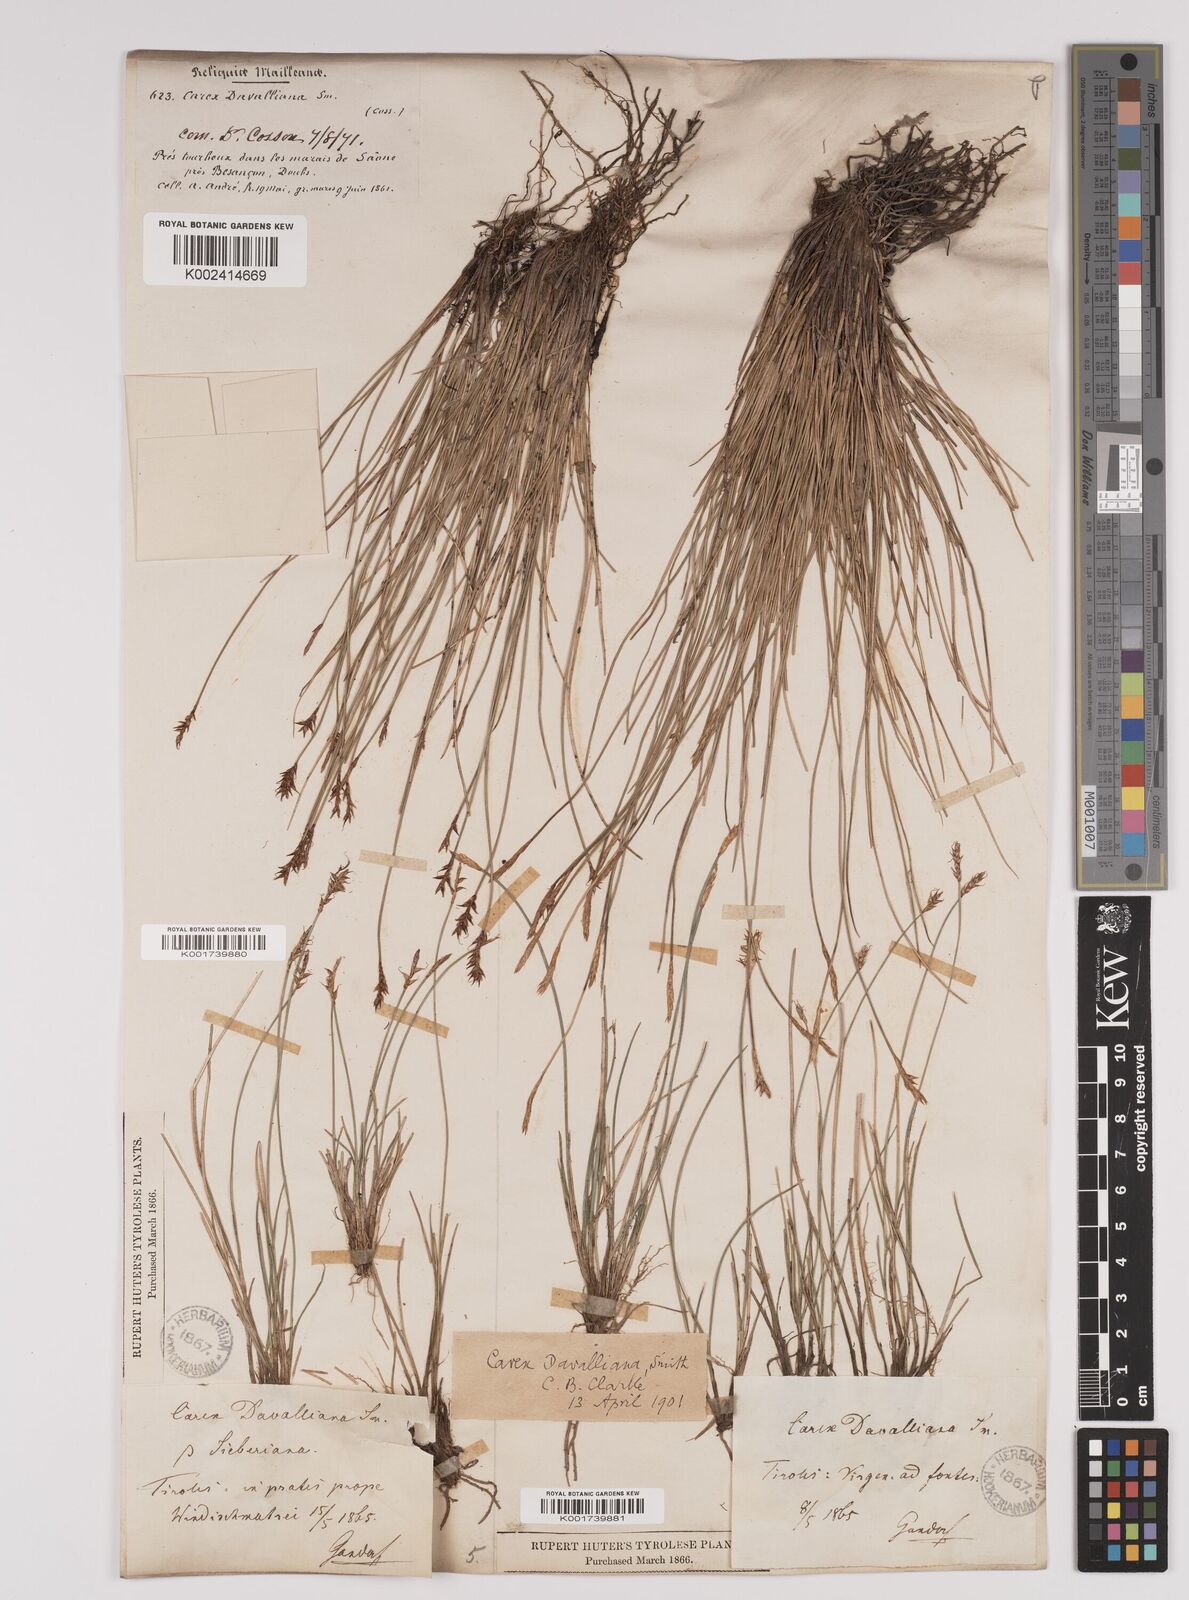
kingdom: Plantae
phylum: Tracheophyta
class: Liliopsida
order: Poales
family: Cyperaceae
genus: Carex
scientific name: Carex davalliana
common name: Davall's sedge
